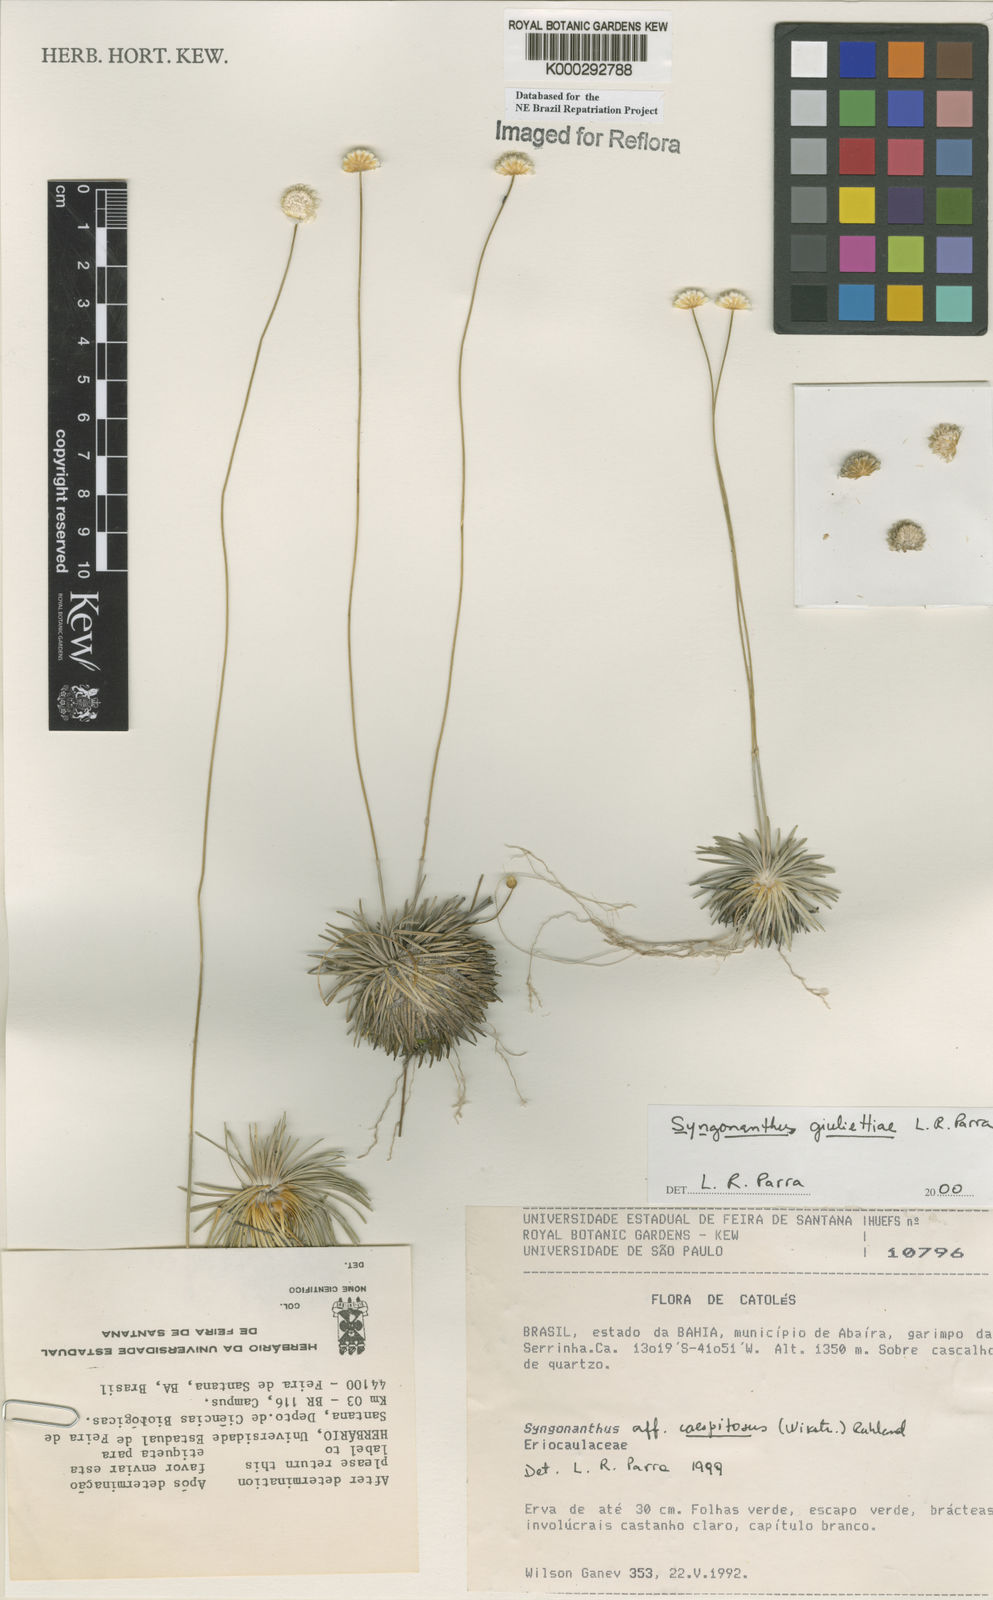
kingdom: Plantae
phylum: Tracheophyta
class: Liliopsida
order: Poales
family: Eriocaulaceae
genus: Syngonanthus
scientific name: Syngonanthus
